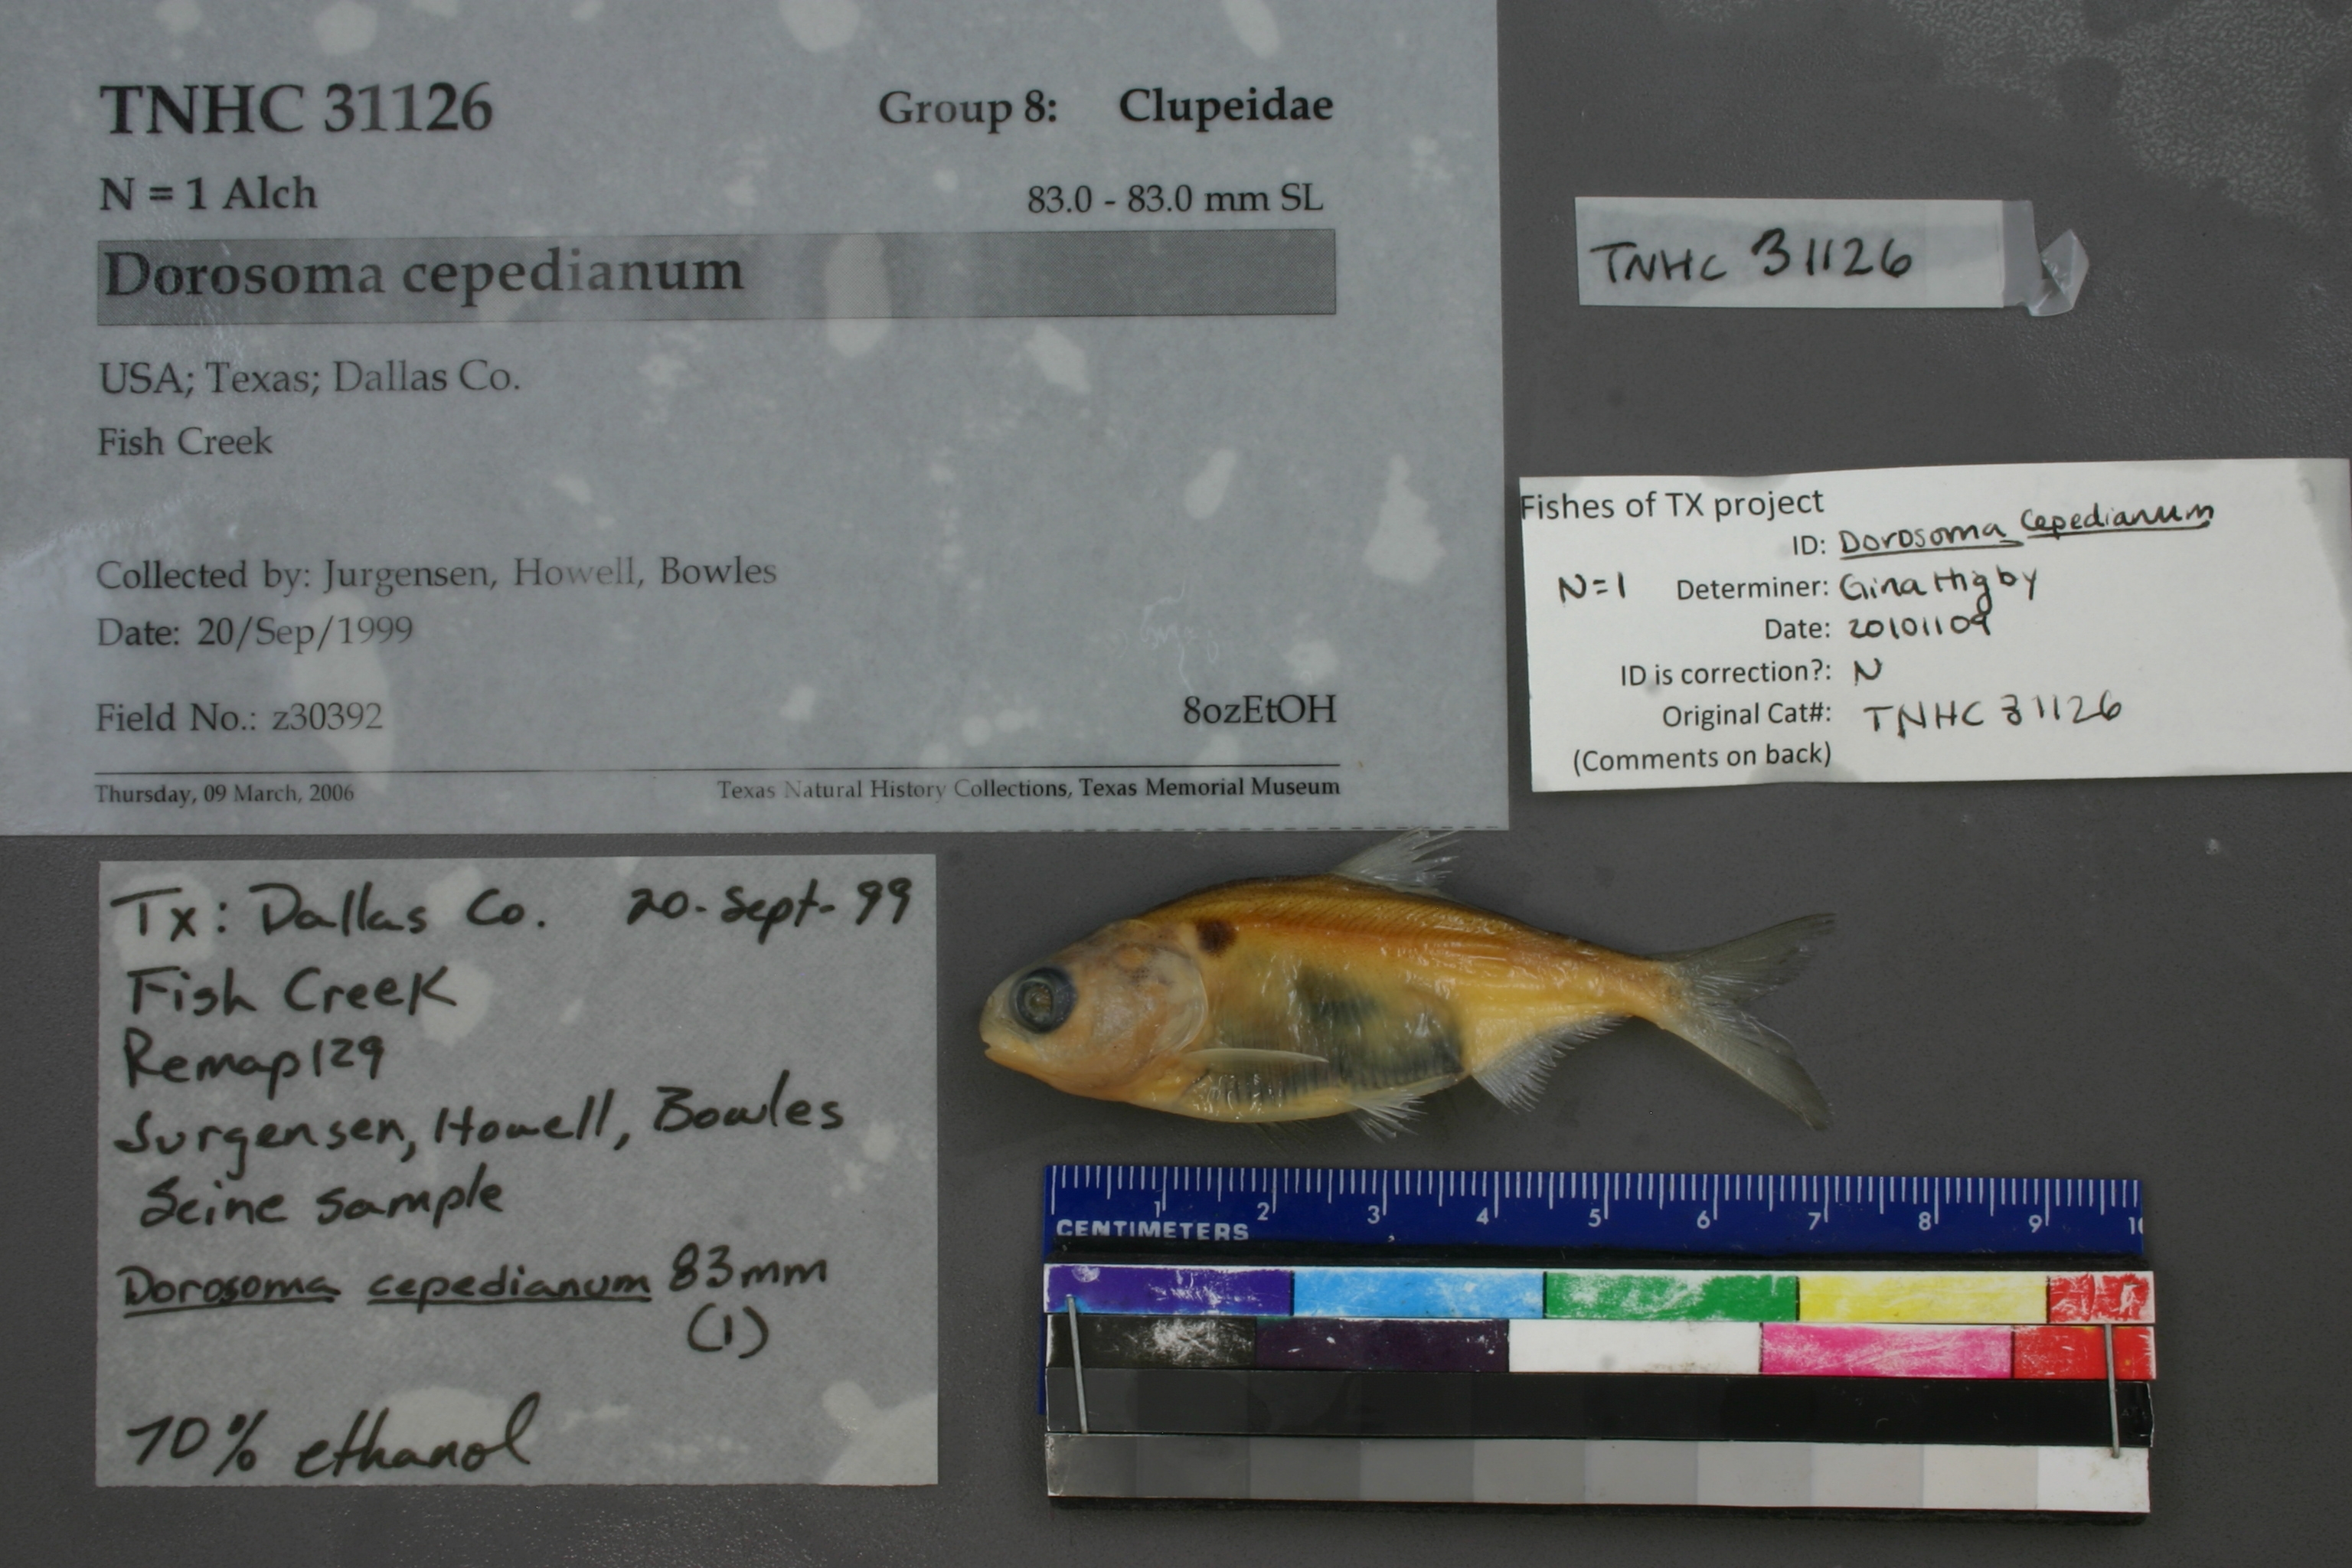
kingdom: Animalia
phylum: Chordata
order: Clupeiformes
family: Clupeidae
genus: Dorosoma
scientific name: Dorosoma cepedianum
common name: Gizzard shad
